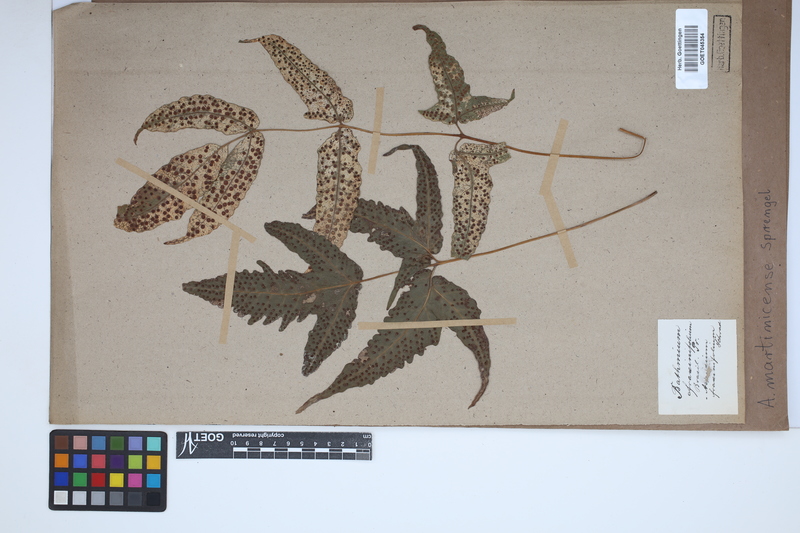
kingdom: Plantae
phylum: Tracheophyta
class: Polypodiopsida
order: Polypodiales
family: Tectariaceae
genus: Tectaria
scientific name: Tectaria incisa
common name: Incised halberd fern
